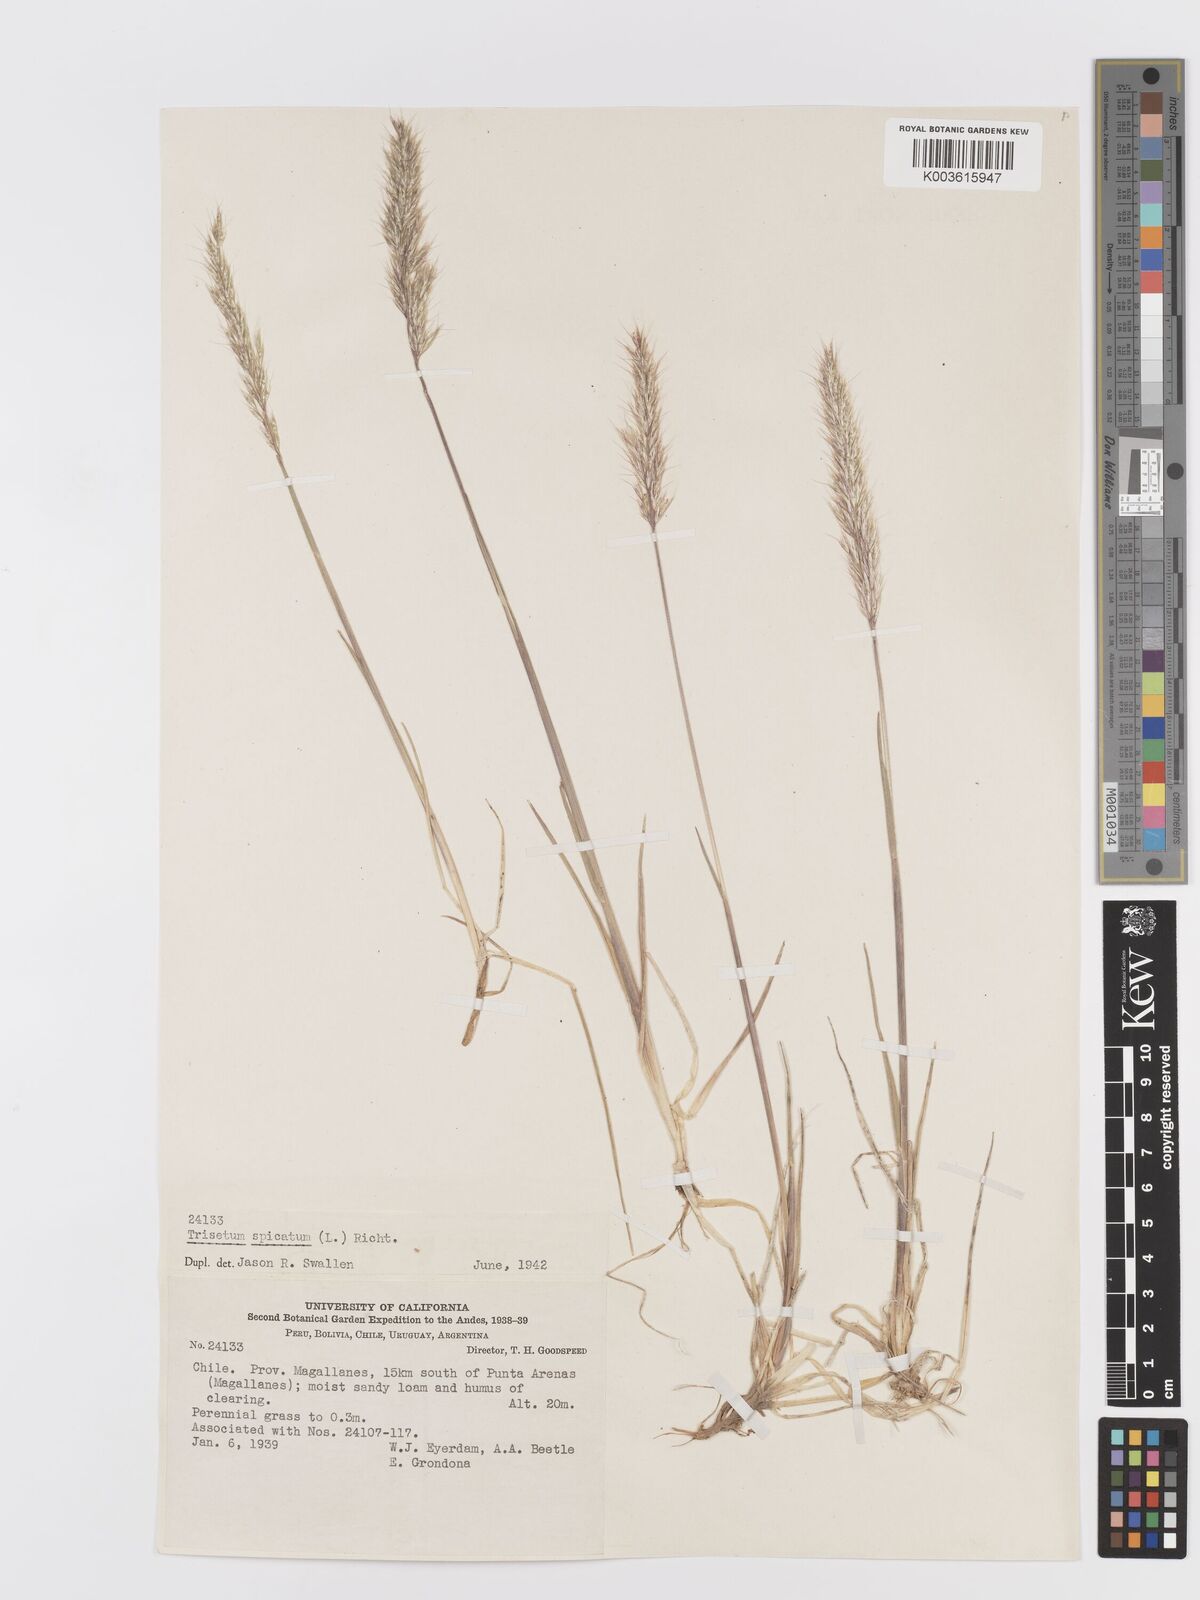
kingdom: Plantae
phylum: Tracheophyta
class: Liliopsida
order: Poales
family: Poaceae
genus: Koeleria
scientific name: Koeleria spicata
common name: Mountain trisetum
